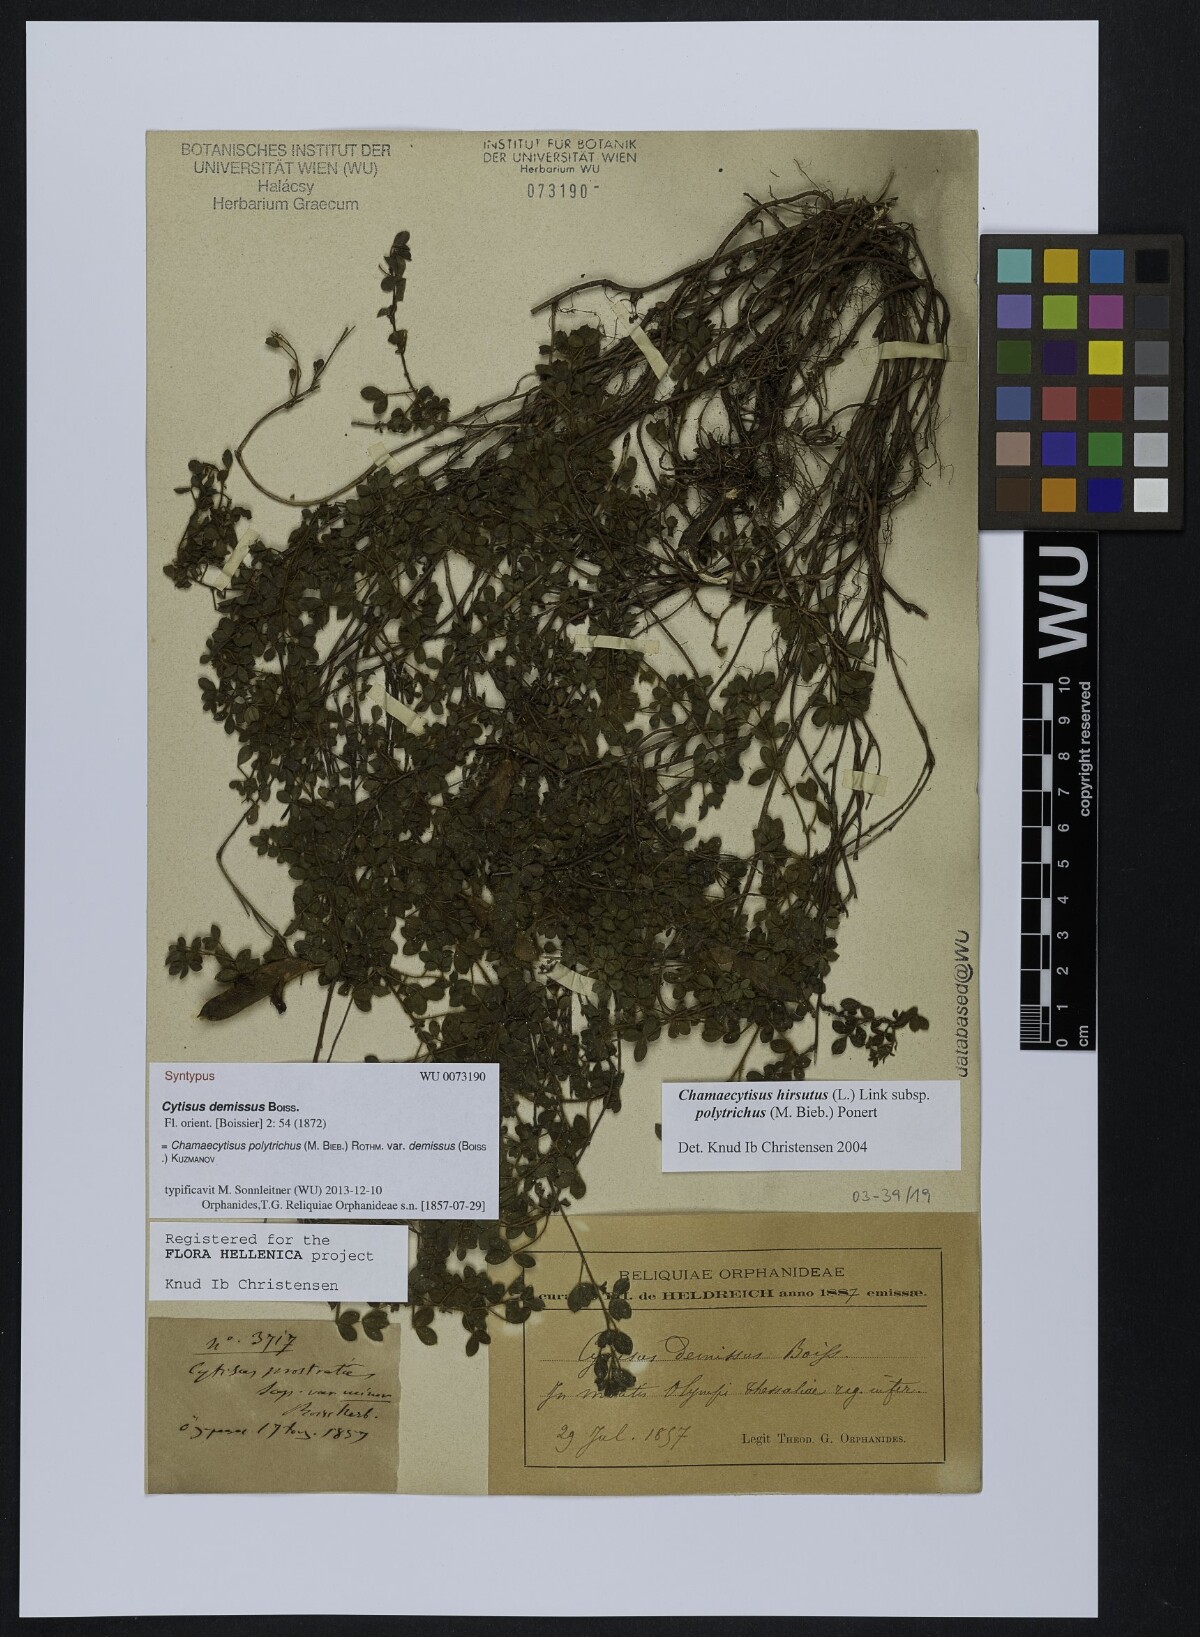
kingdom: Plantae
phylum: Tracheophyta
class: Magnoliopsida
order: Fabales
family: Fabaceae
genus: Chamaecytisus
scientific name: Chamaecytisus hirsutus
